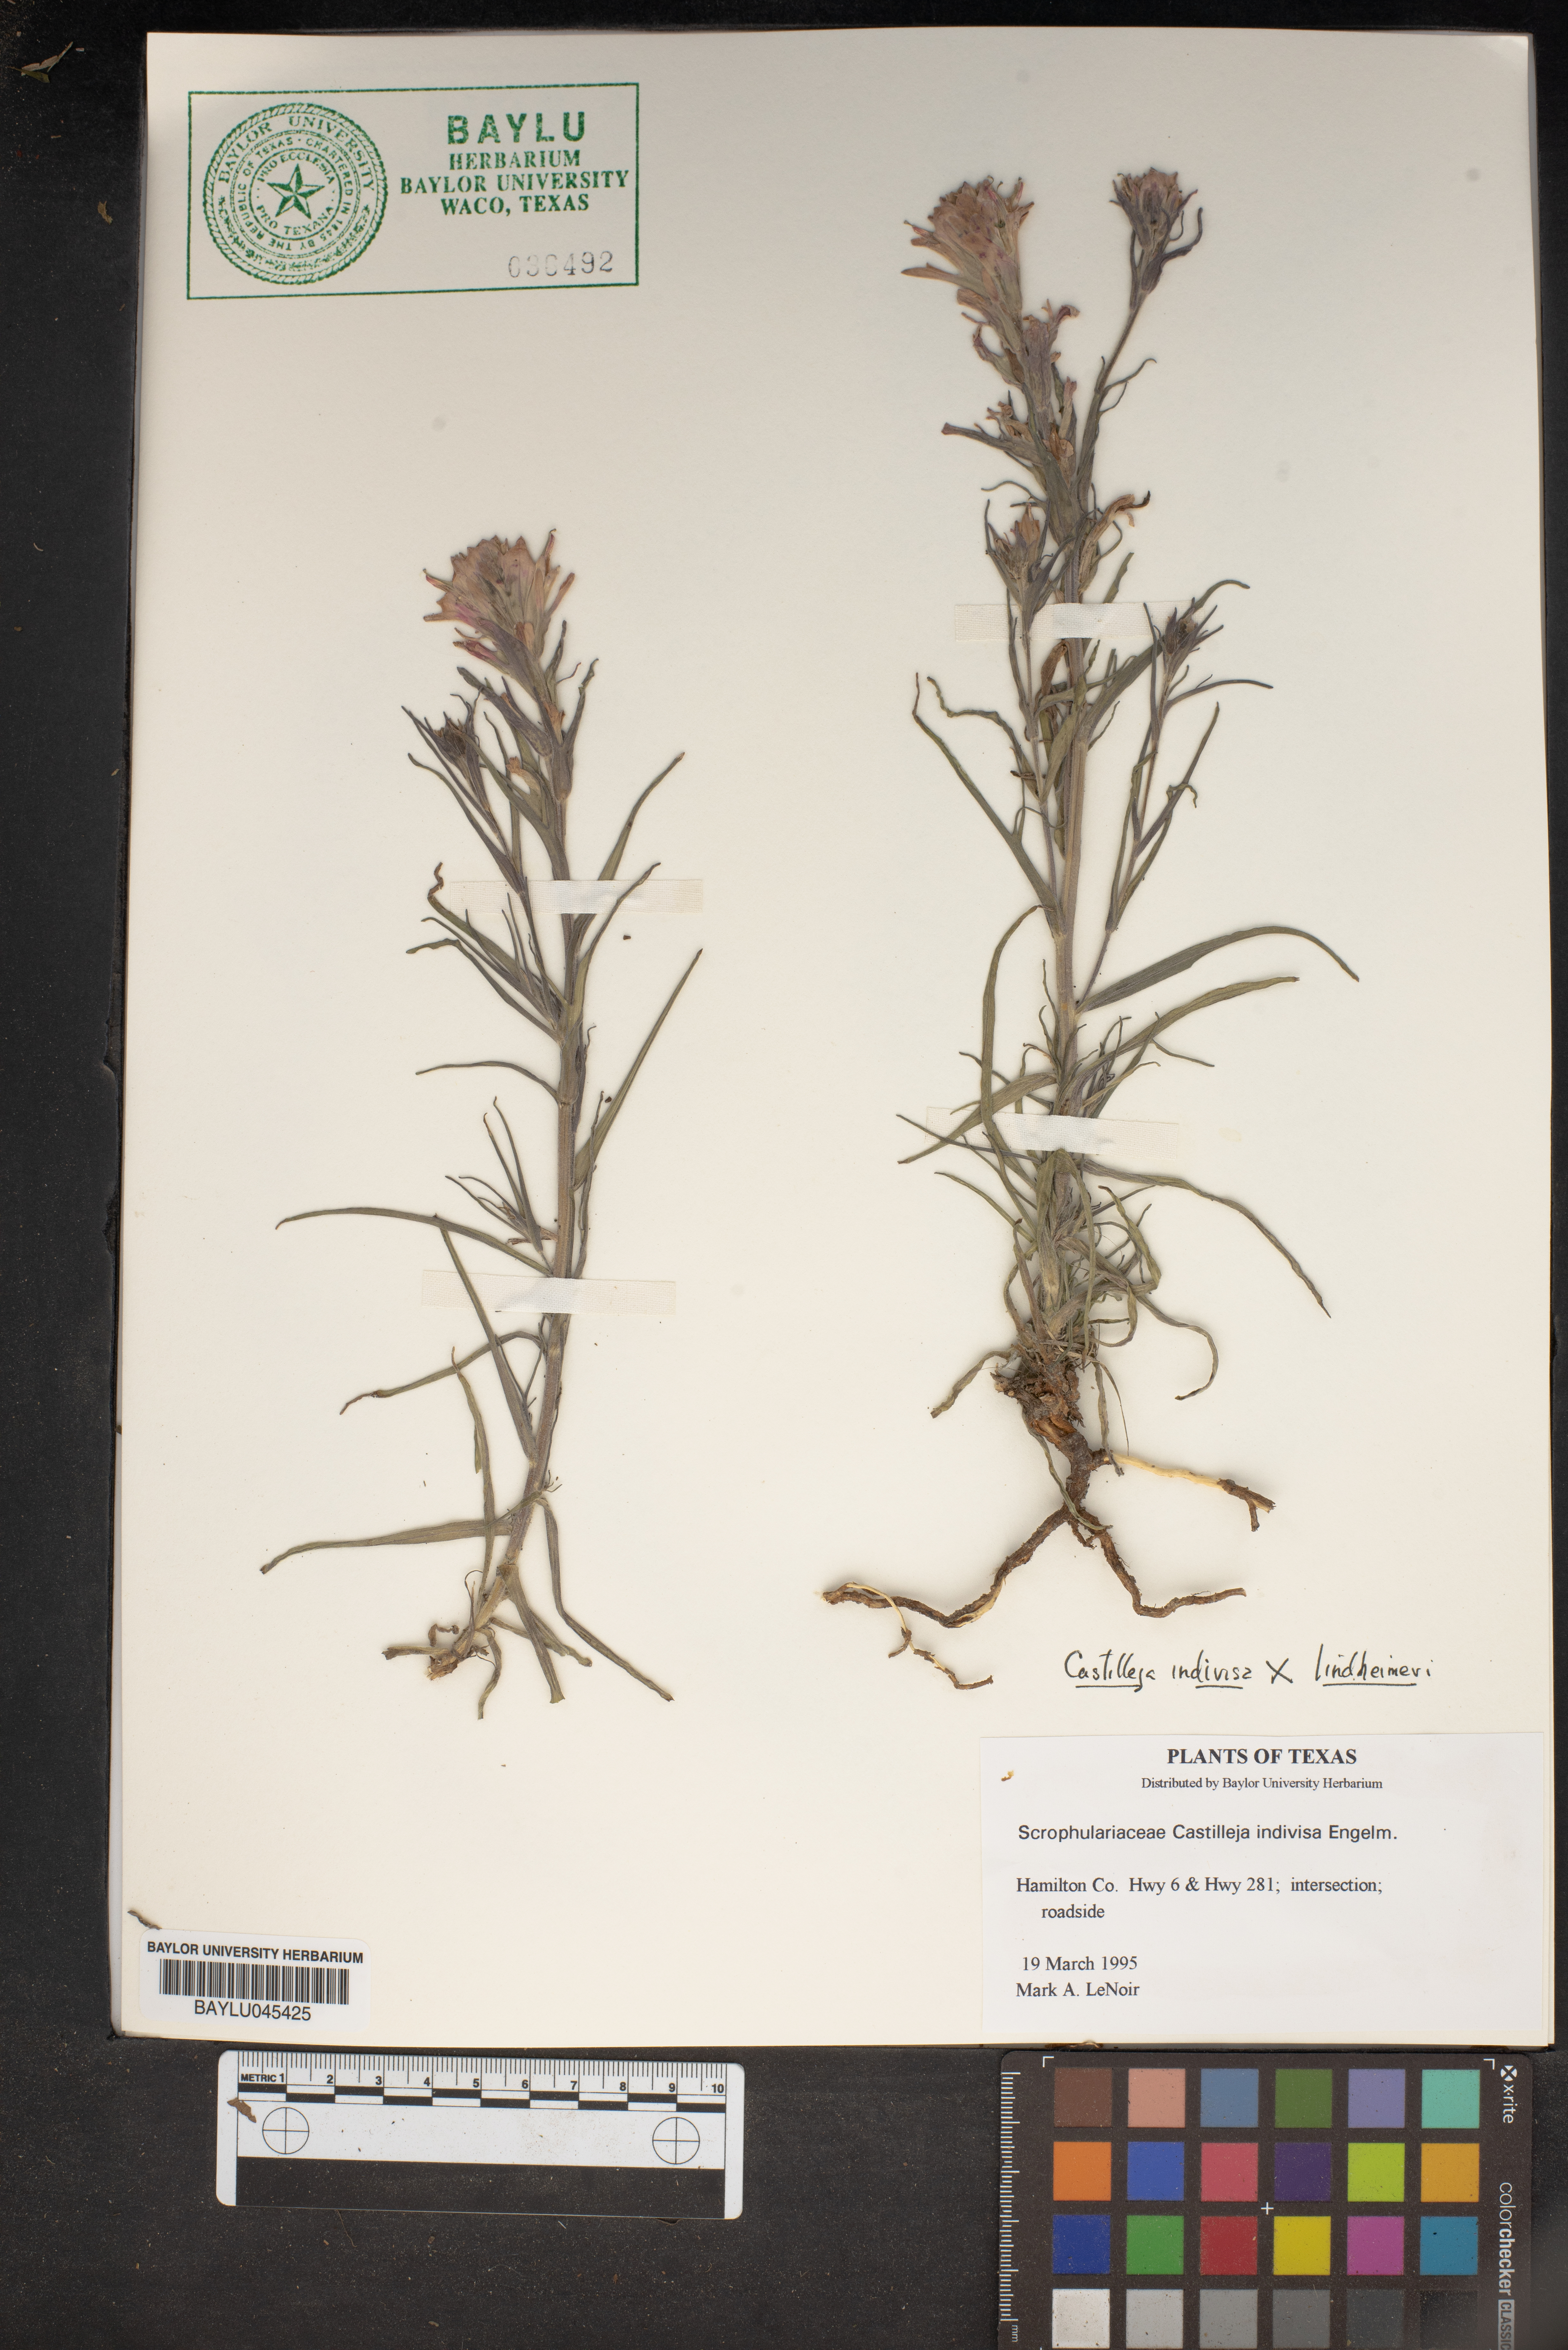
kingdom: Plantae
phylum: Tracheophyta
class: Magnoliopsida
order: Lamiales
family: Orobanchaceae
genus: Castilleja
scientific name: Castilleja indivisa
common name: Texas paintbrush
